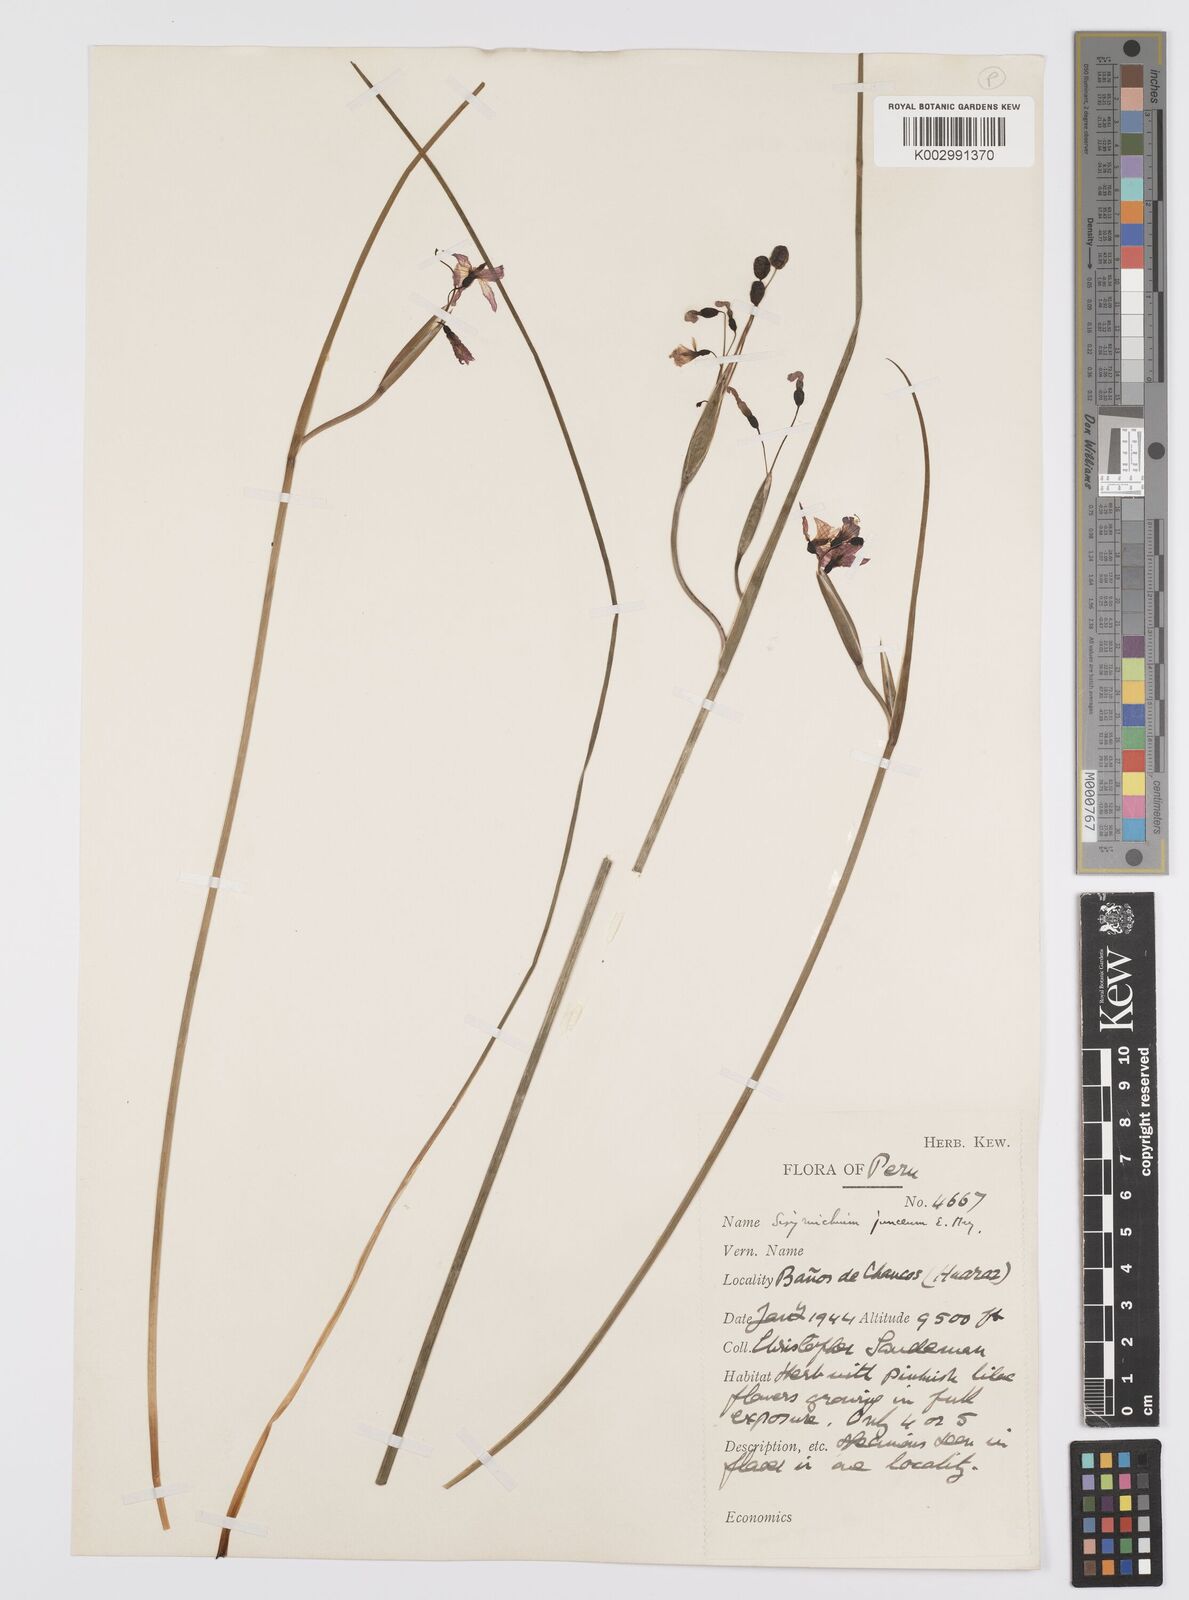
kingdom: Plantae
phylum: Tracheophyta
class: Liliopsida
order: Asparagales
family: Iridaceae
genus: Olsynium
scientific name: Olsynium junceum
